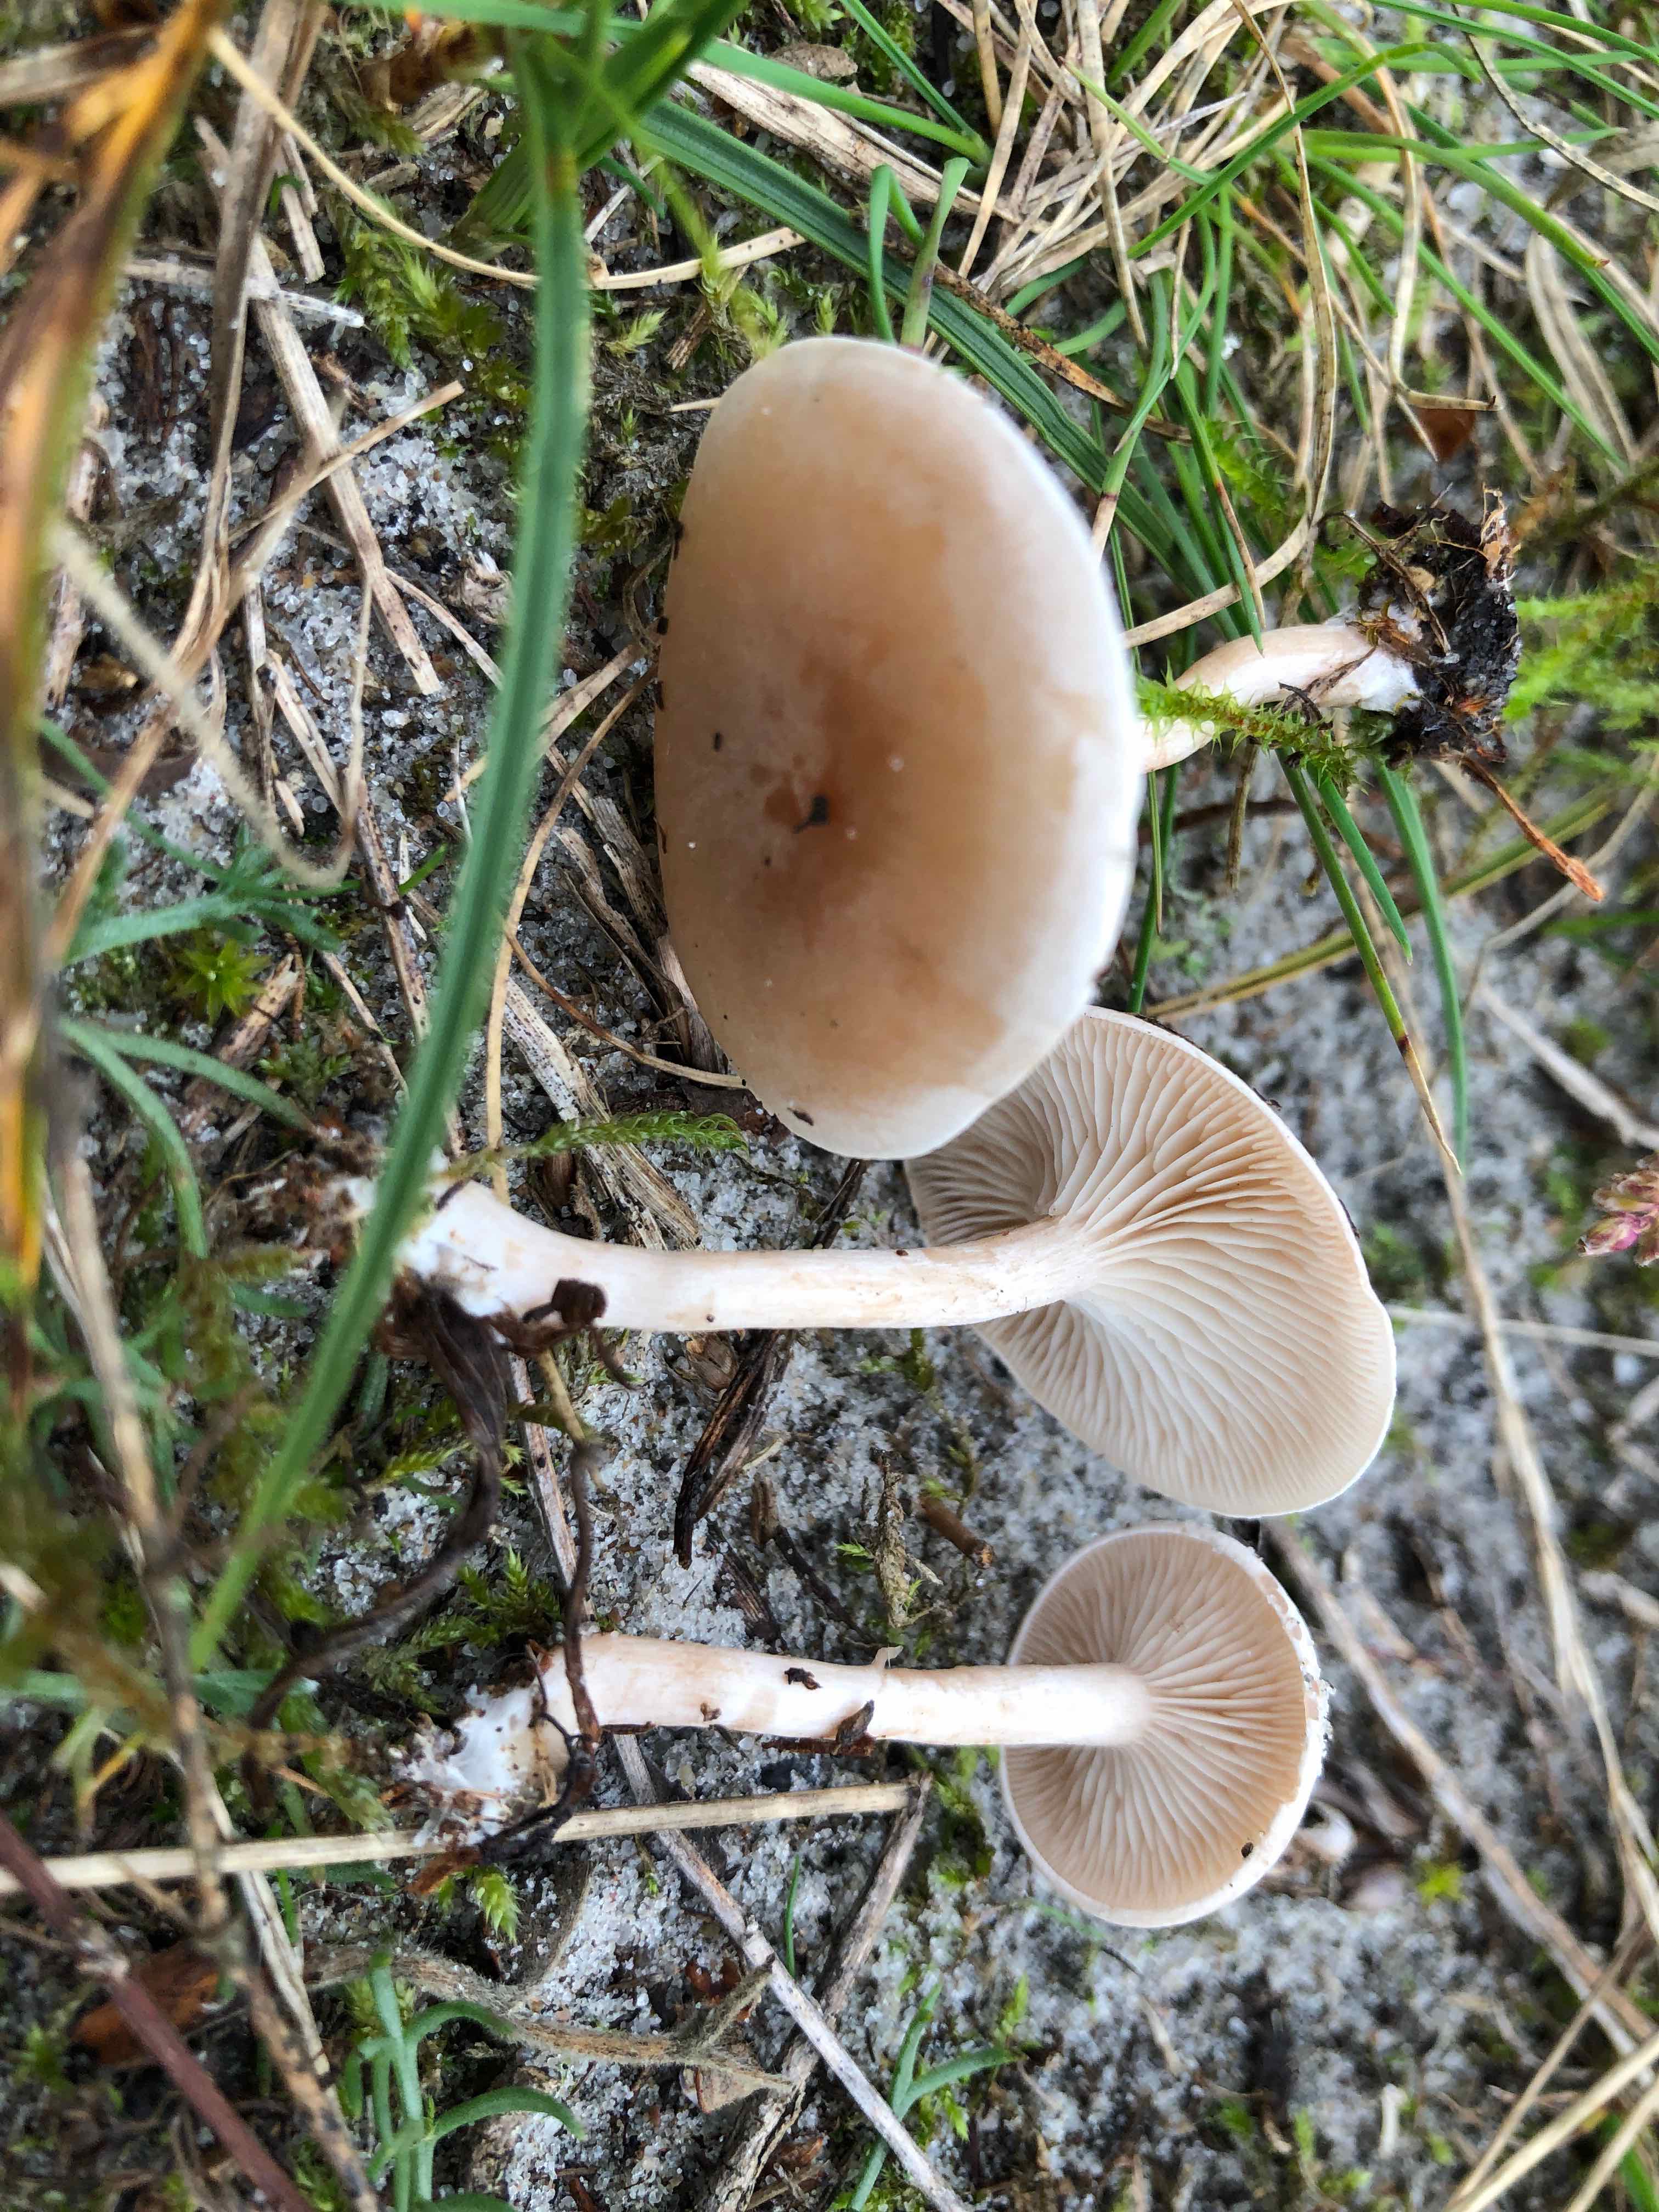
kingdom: Fungi
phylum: Basidiomycota
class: Agaricomycetes
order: Agaricales
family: Tricholomataceae
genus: Clitocybe
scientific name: Clitocybe
